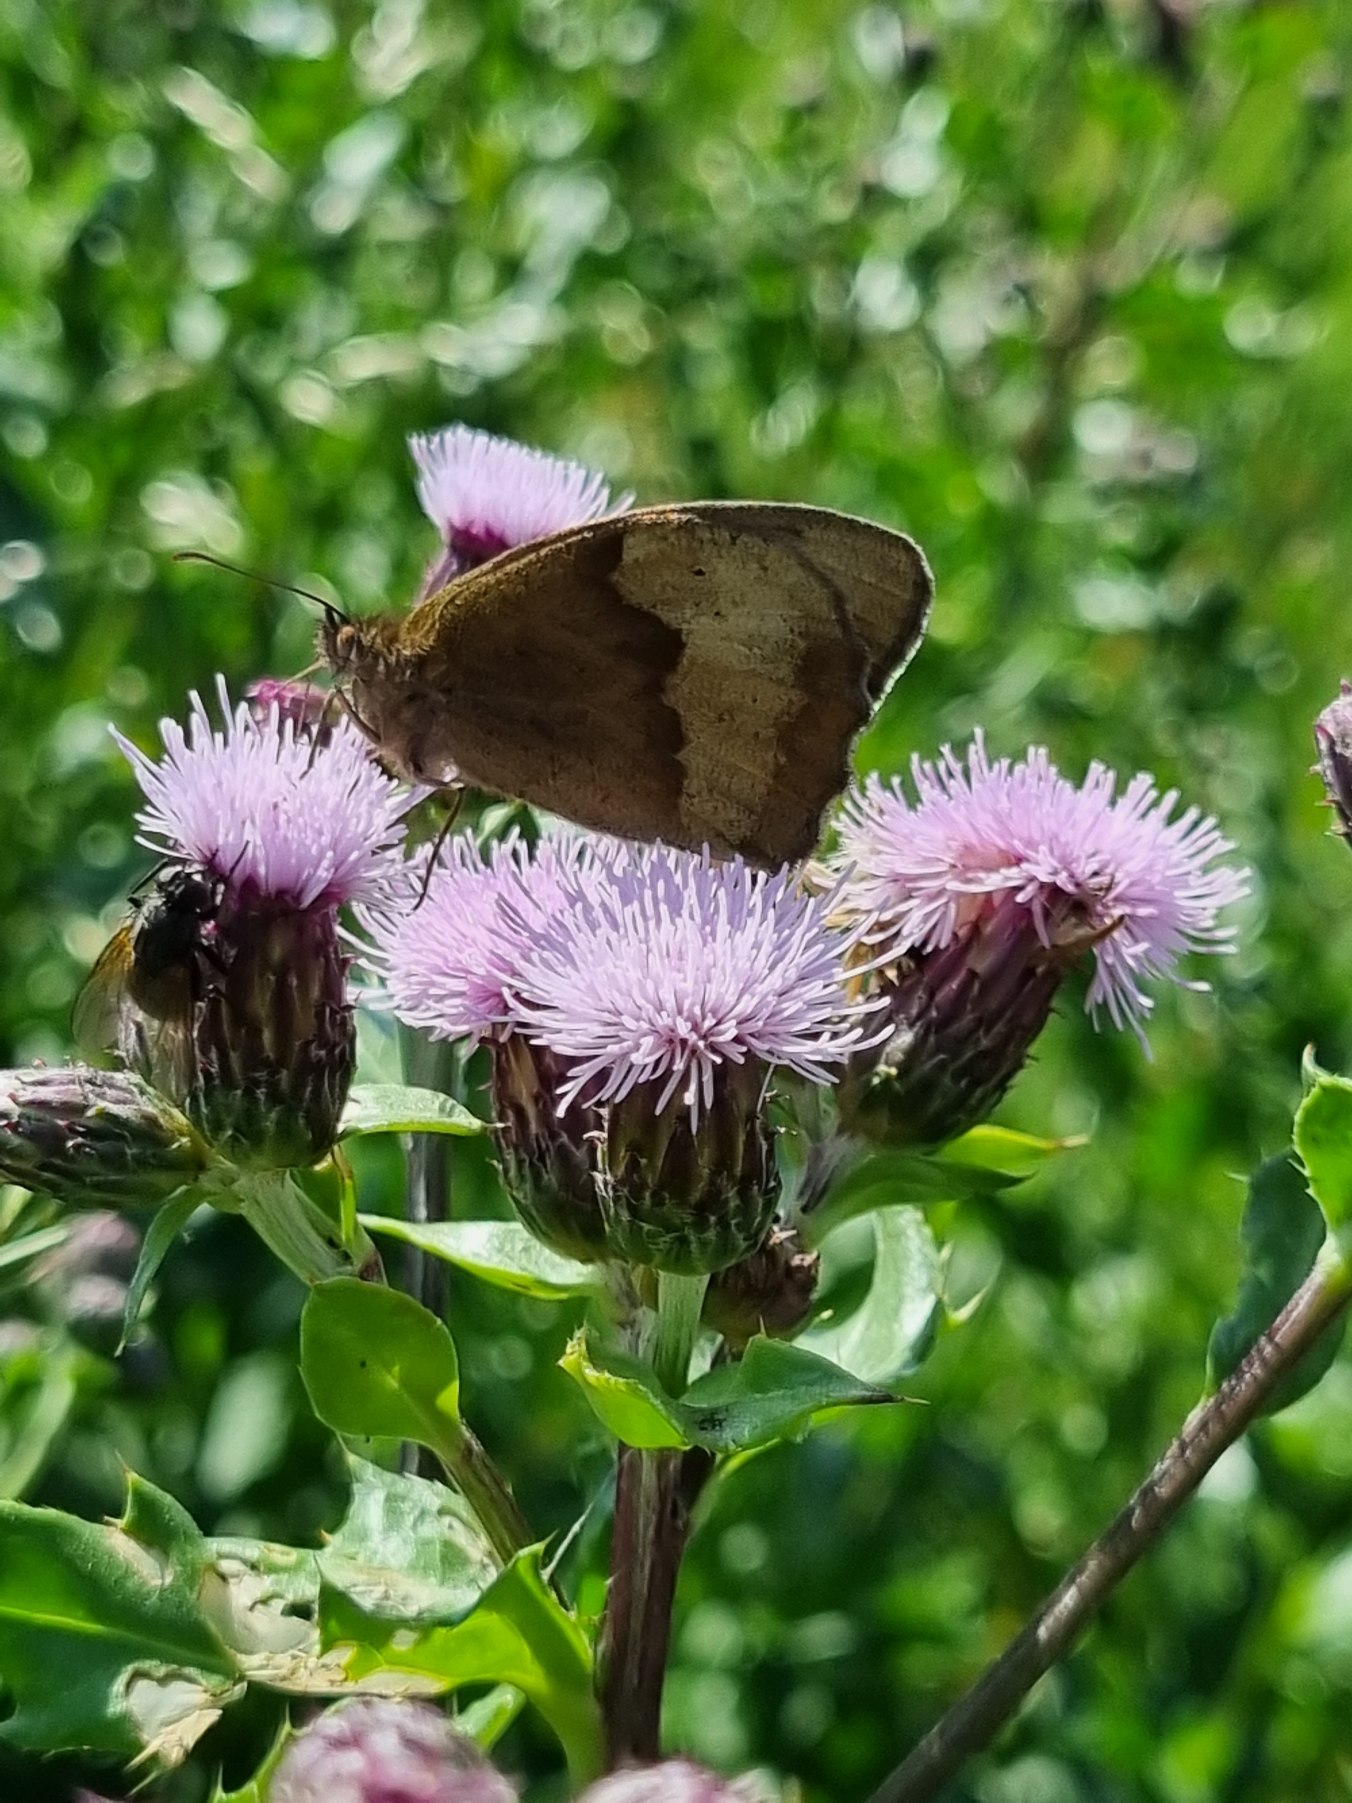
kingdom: Animalia
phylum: Arthropoda
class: Insecta
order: Lepidoptera
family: Nymphalidae
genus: Maniola
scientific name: Maniola jurtina
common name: Græsrandøje
